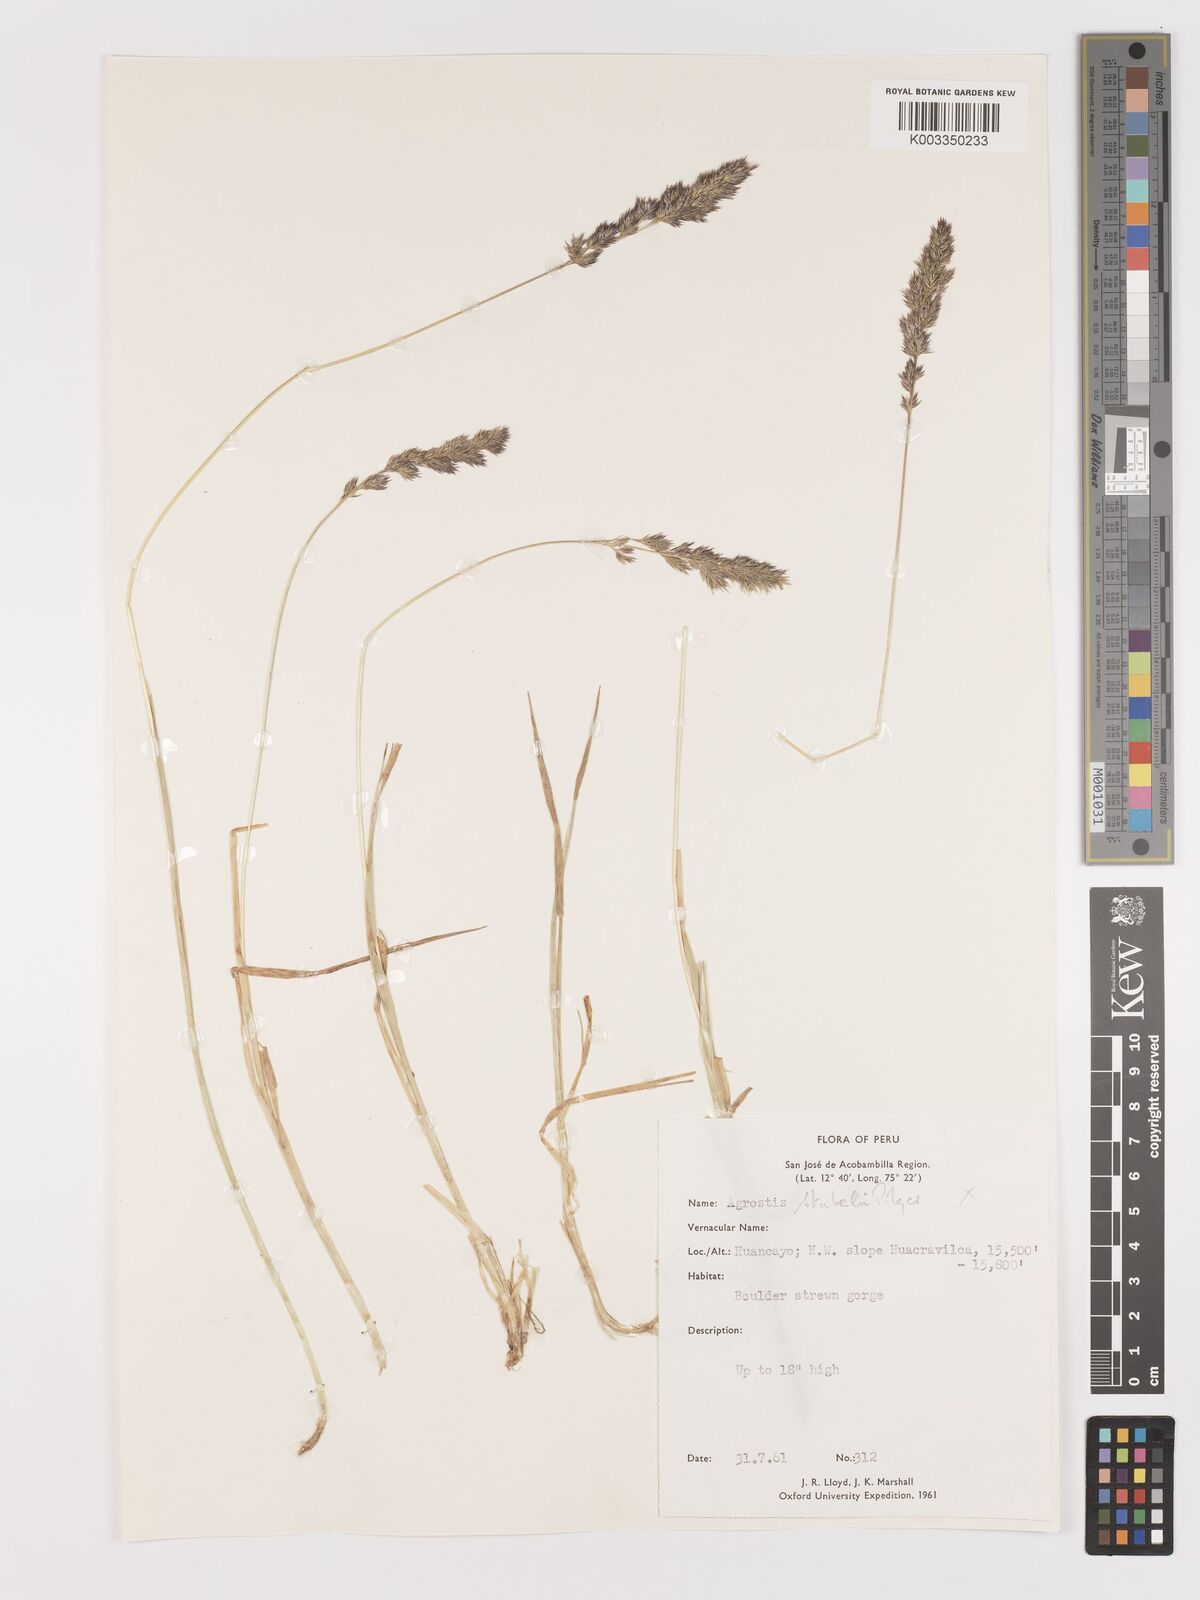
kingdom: Plantae
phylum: Tracheophyta
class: Liliopsida
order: Poales
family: Poaceae
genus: Agrostis
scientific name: Agrostis
